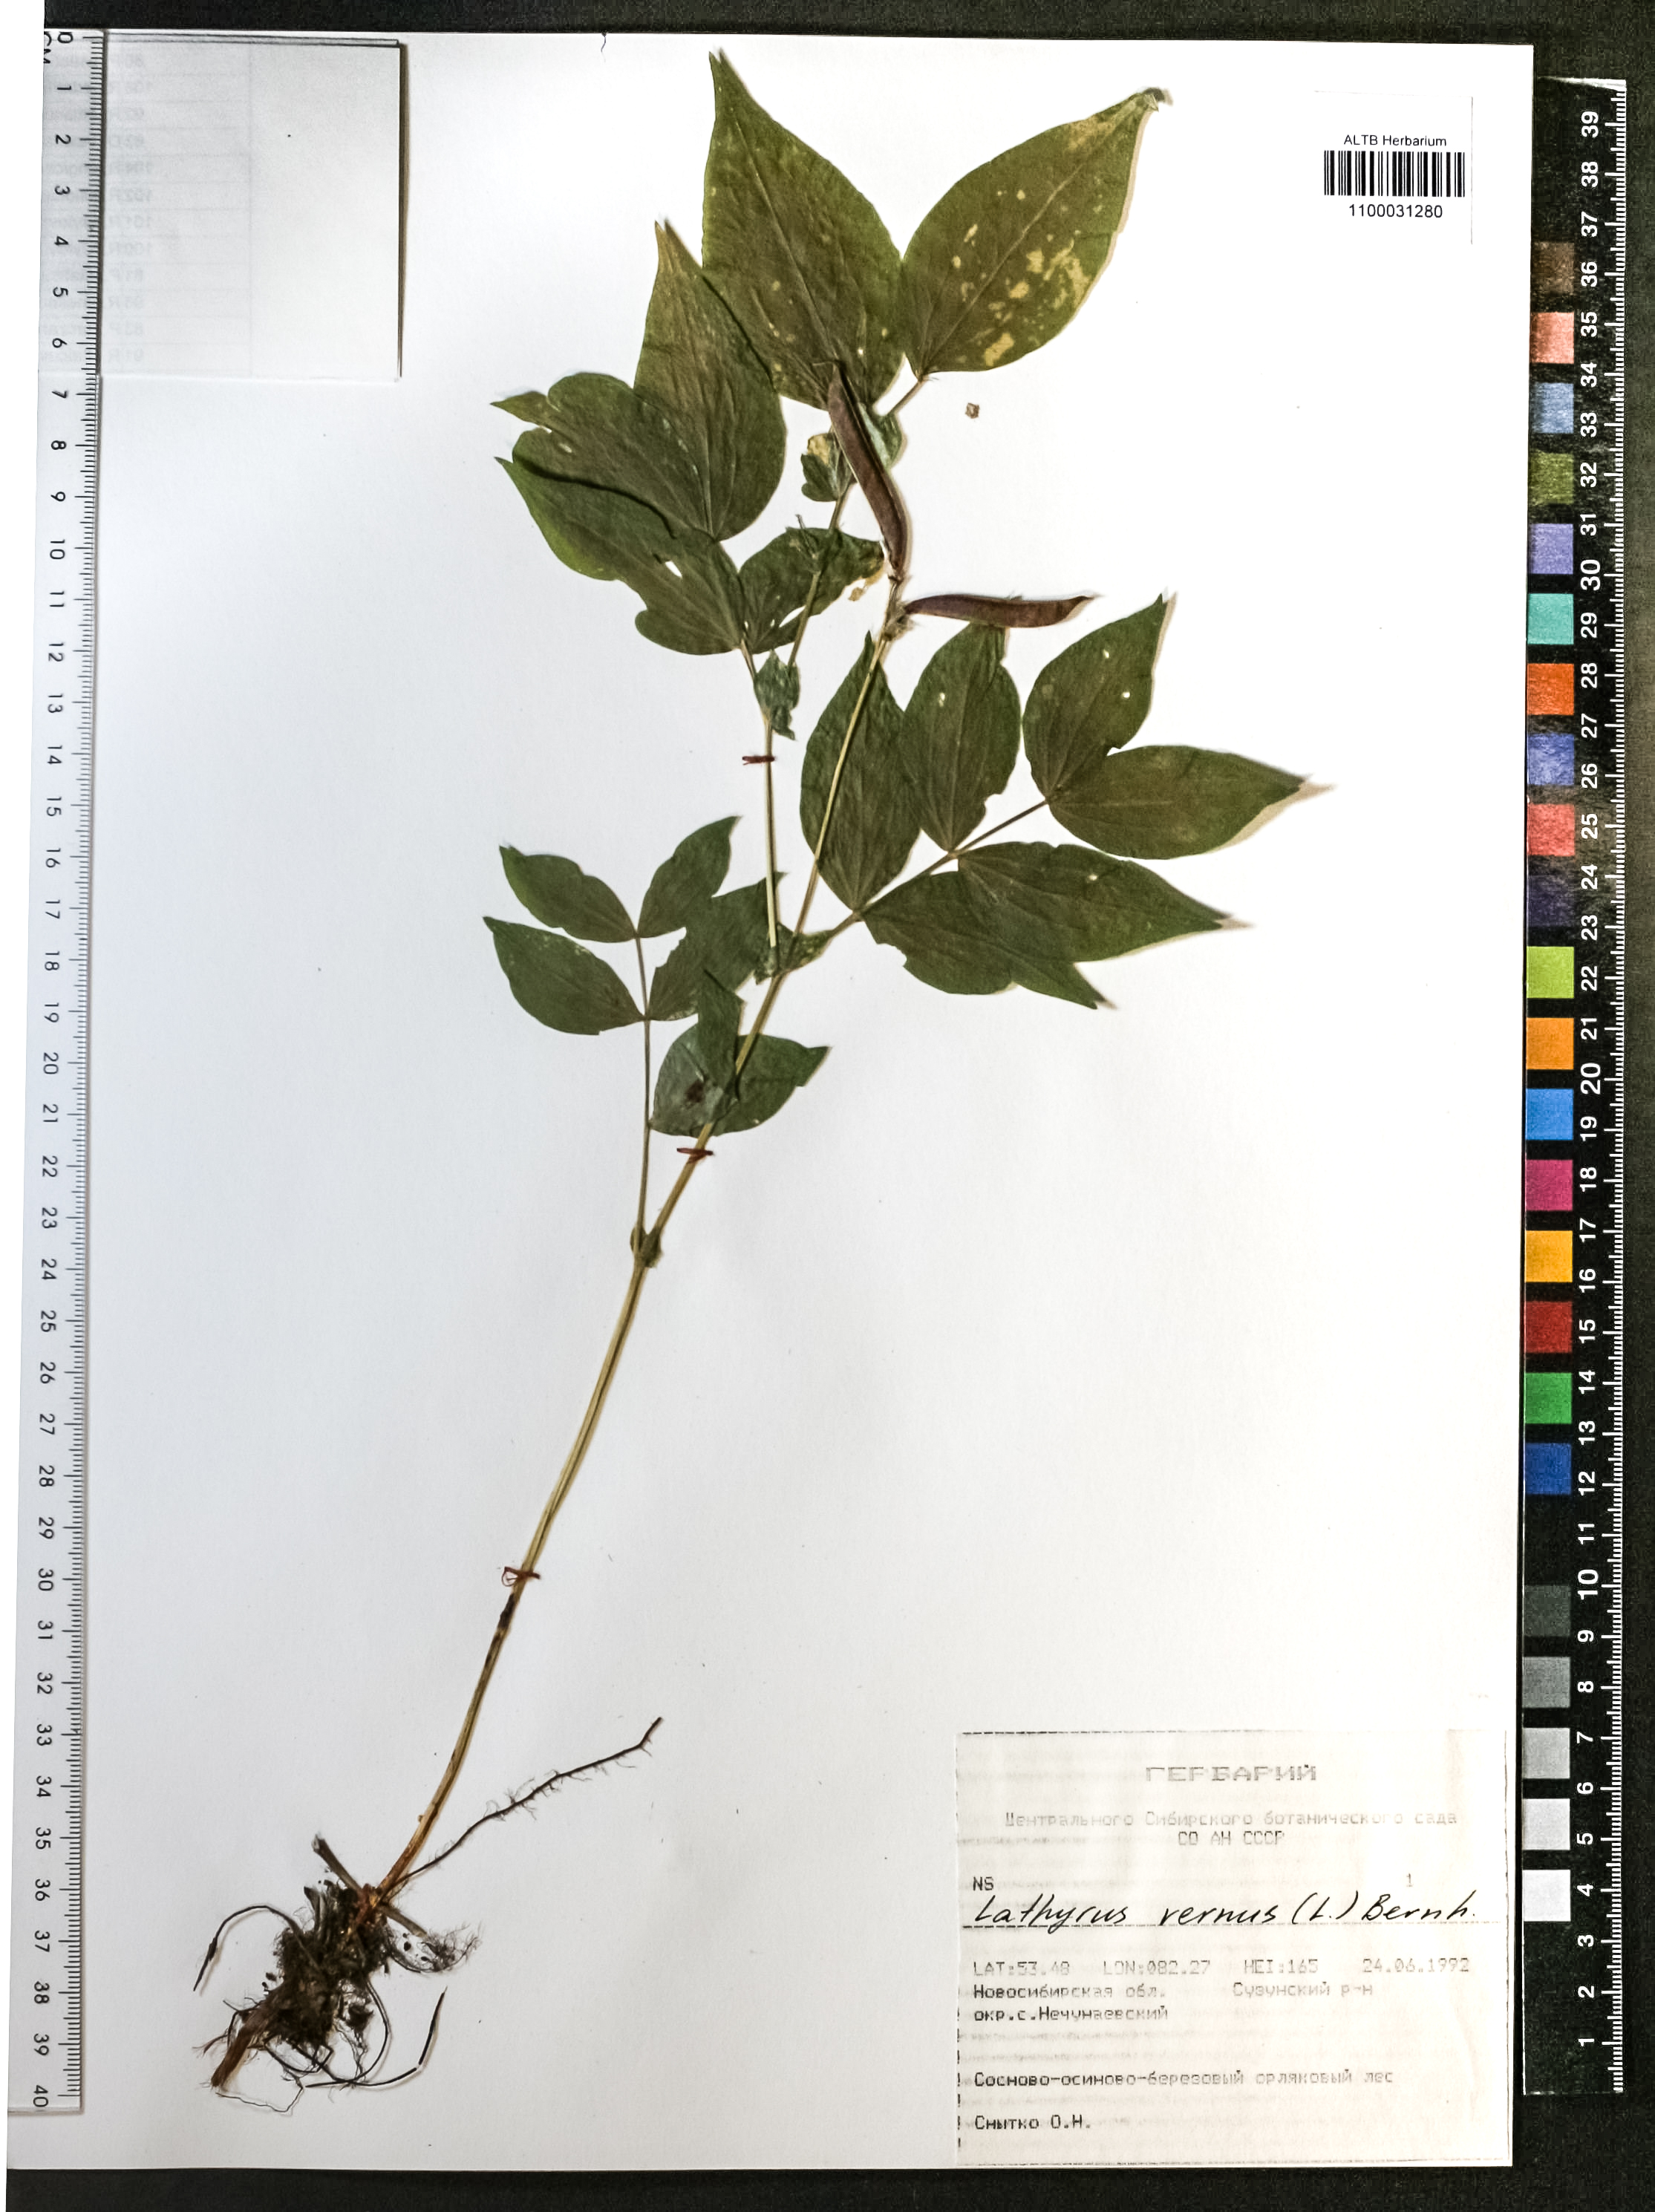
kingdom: Plantae
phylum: Tracheophyta
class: Magnoliopsida
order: Fabales
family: Fabaceae
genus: Lathyrus
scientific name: Lathyrus vernus
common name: Spring pea
